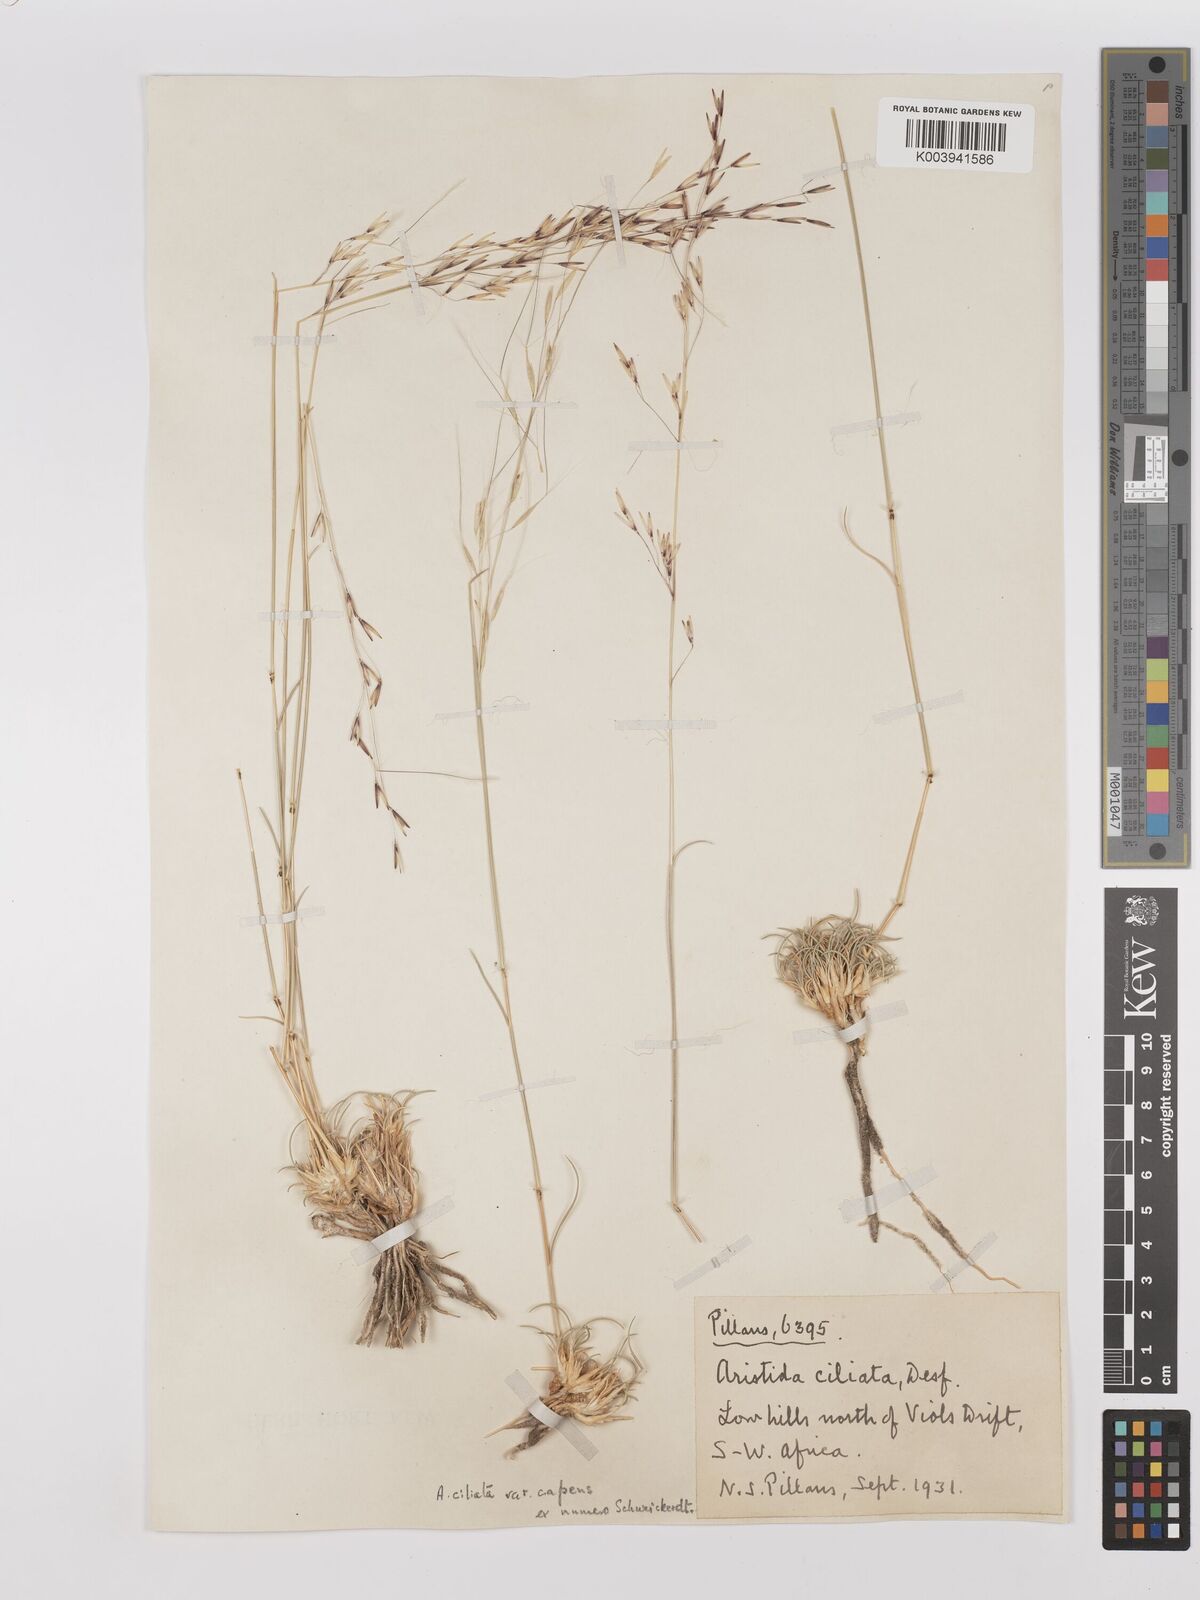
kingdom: Plantae
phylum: Tracheophyta
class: Liliopsida
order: Poales
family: Poaceae
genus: Stipagrostis
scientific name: Stipagrostis ciliata
